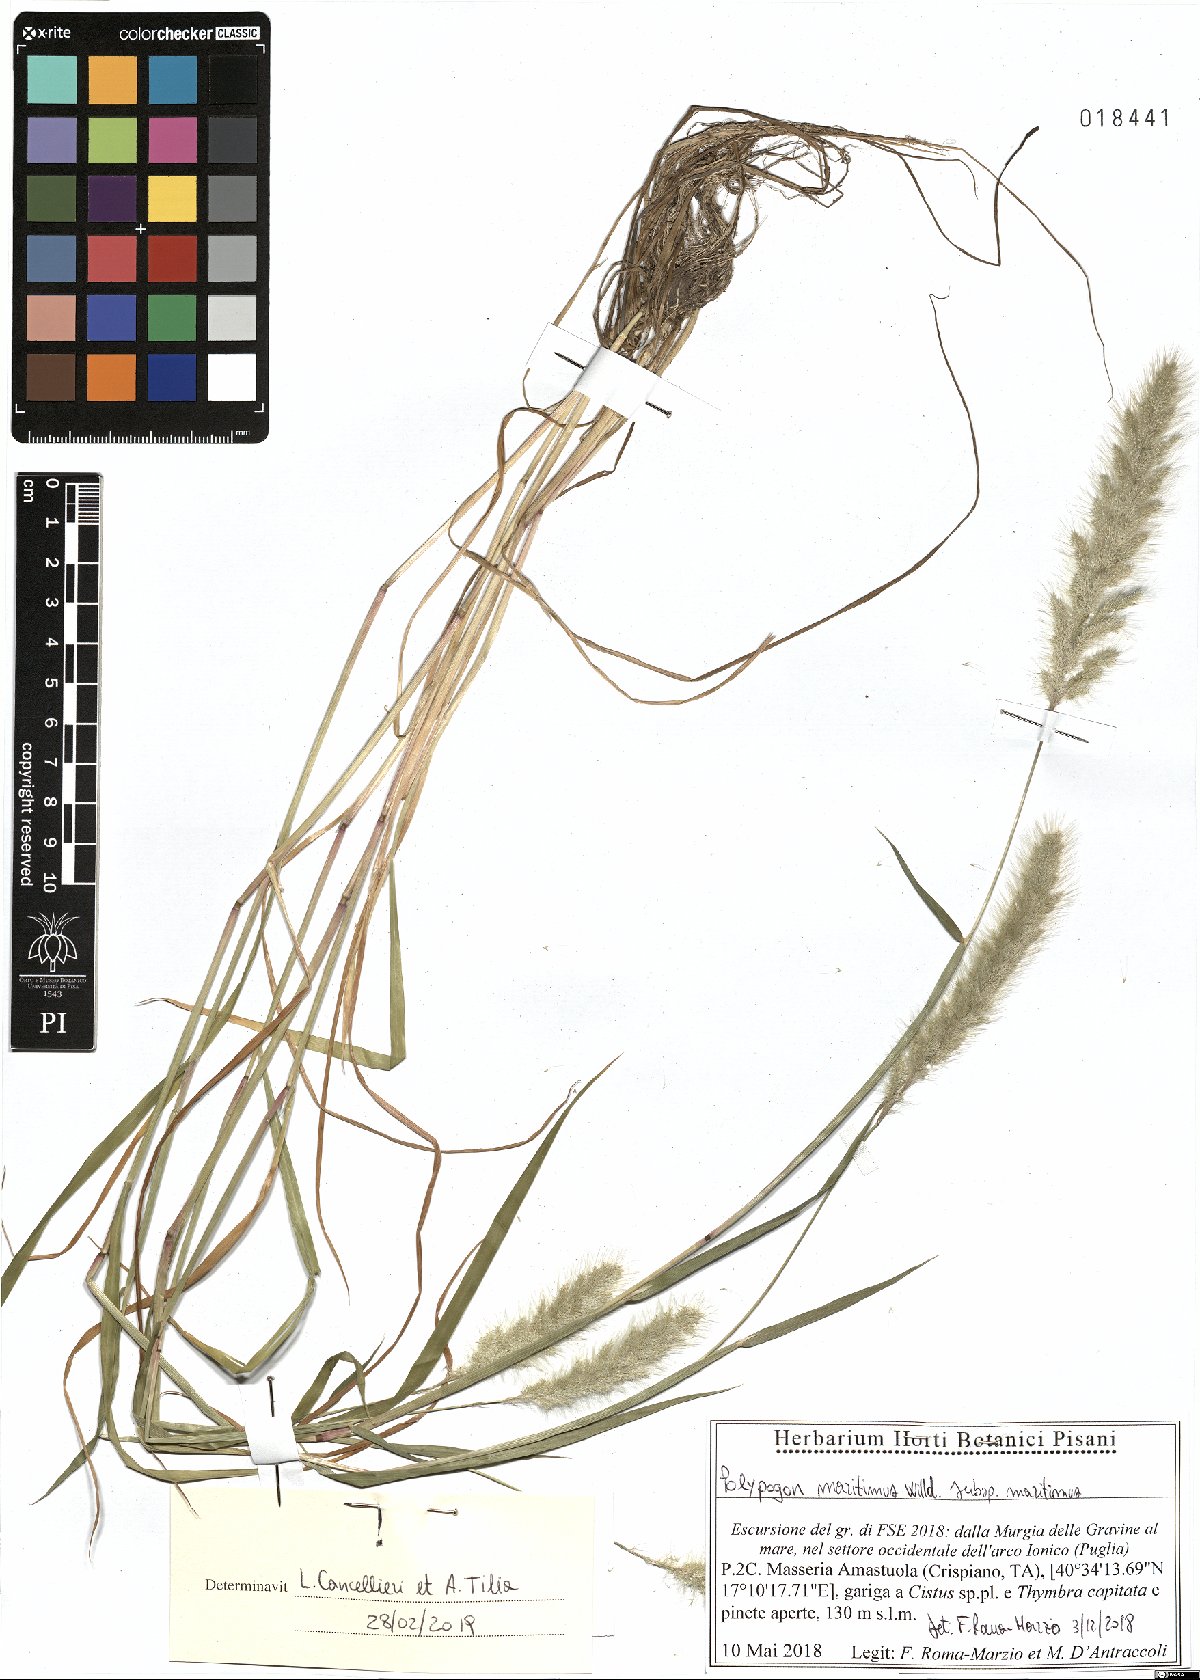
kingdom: Plantae
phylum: Tracheophyta
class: Liliopsida
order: Poales
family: Poaceae
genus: Polypogon
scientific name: Polypogon maritimus
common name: Mediterranean rabbitsfoot grass
